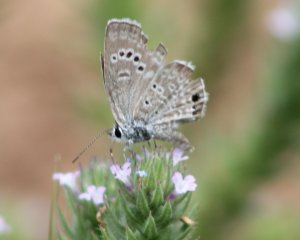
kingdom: Animalia
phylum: Arthropoda
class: Insecta
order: Lepidoptera
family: Lycaenidae
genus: Echinargus
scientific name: Echinargus isola
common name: Reakirt's Blue
